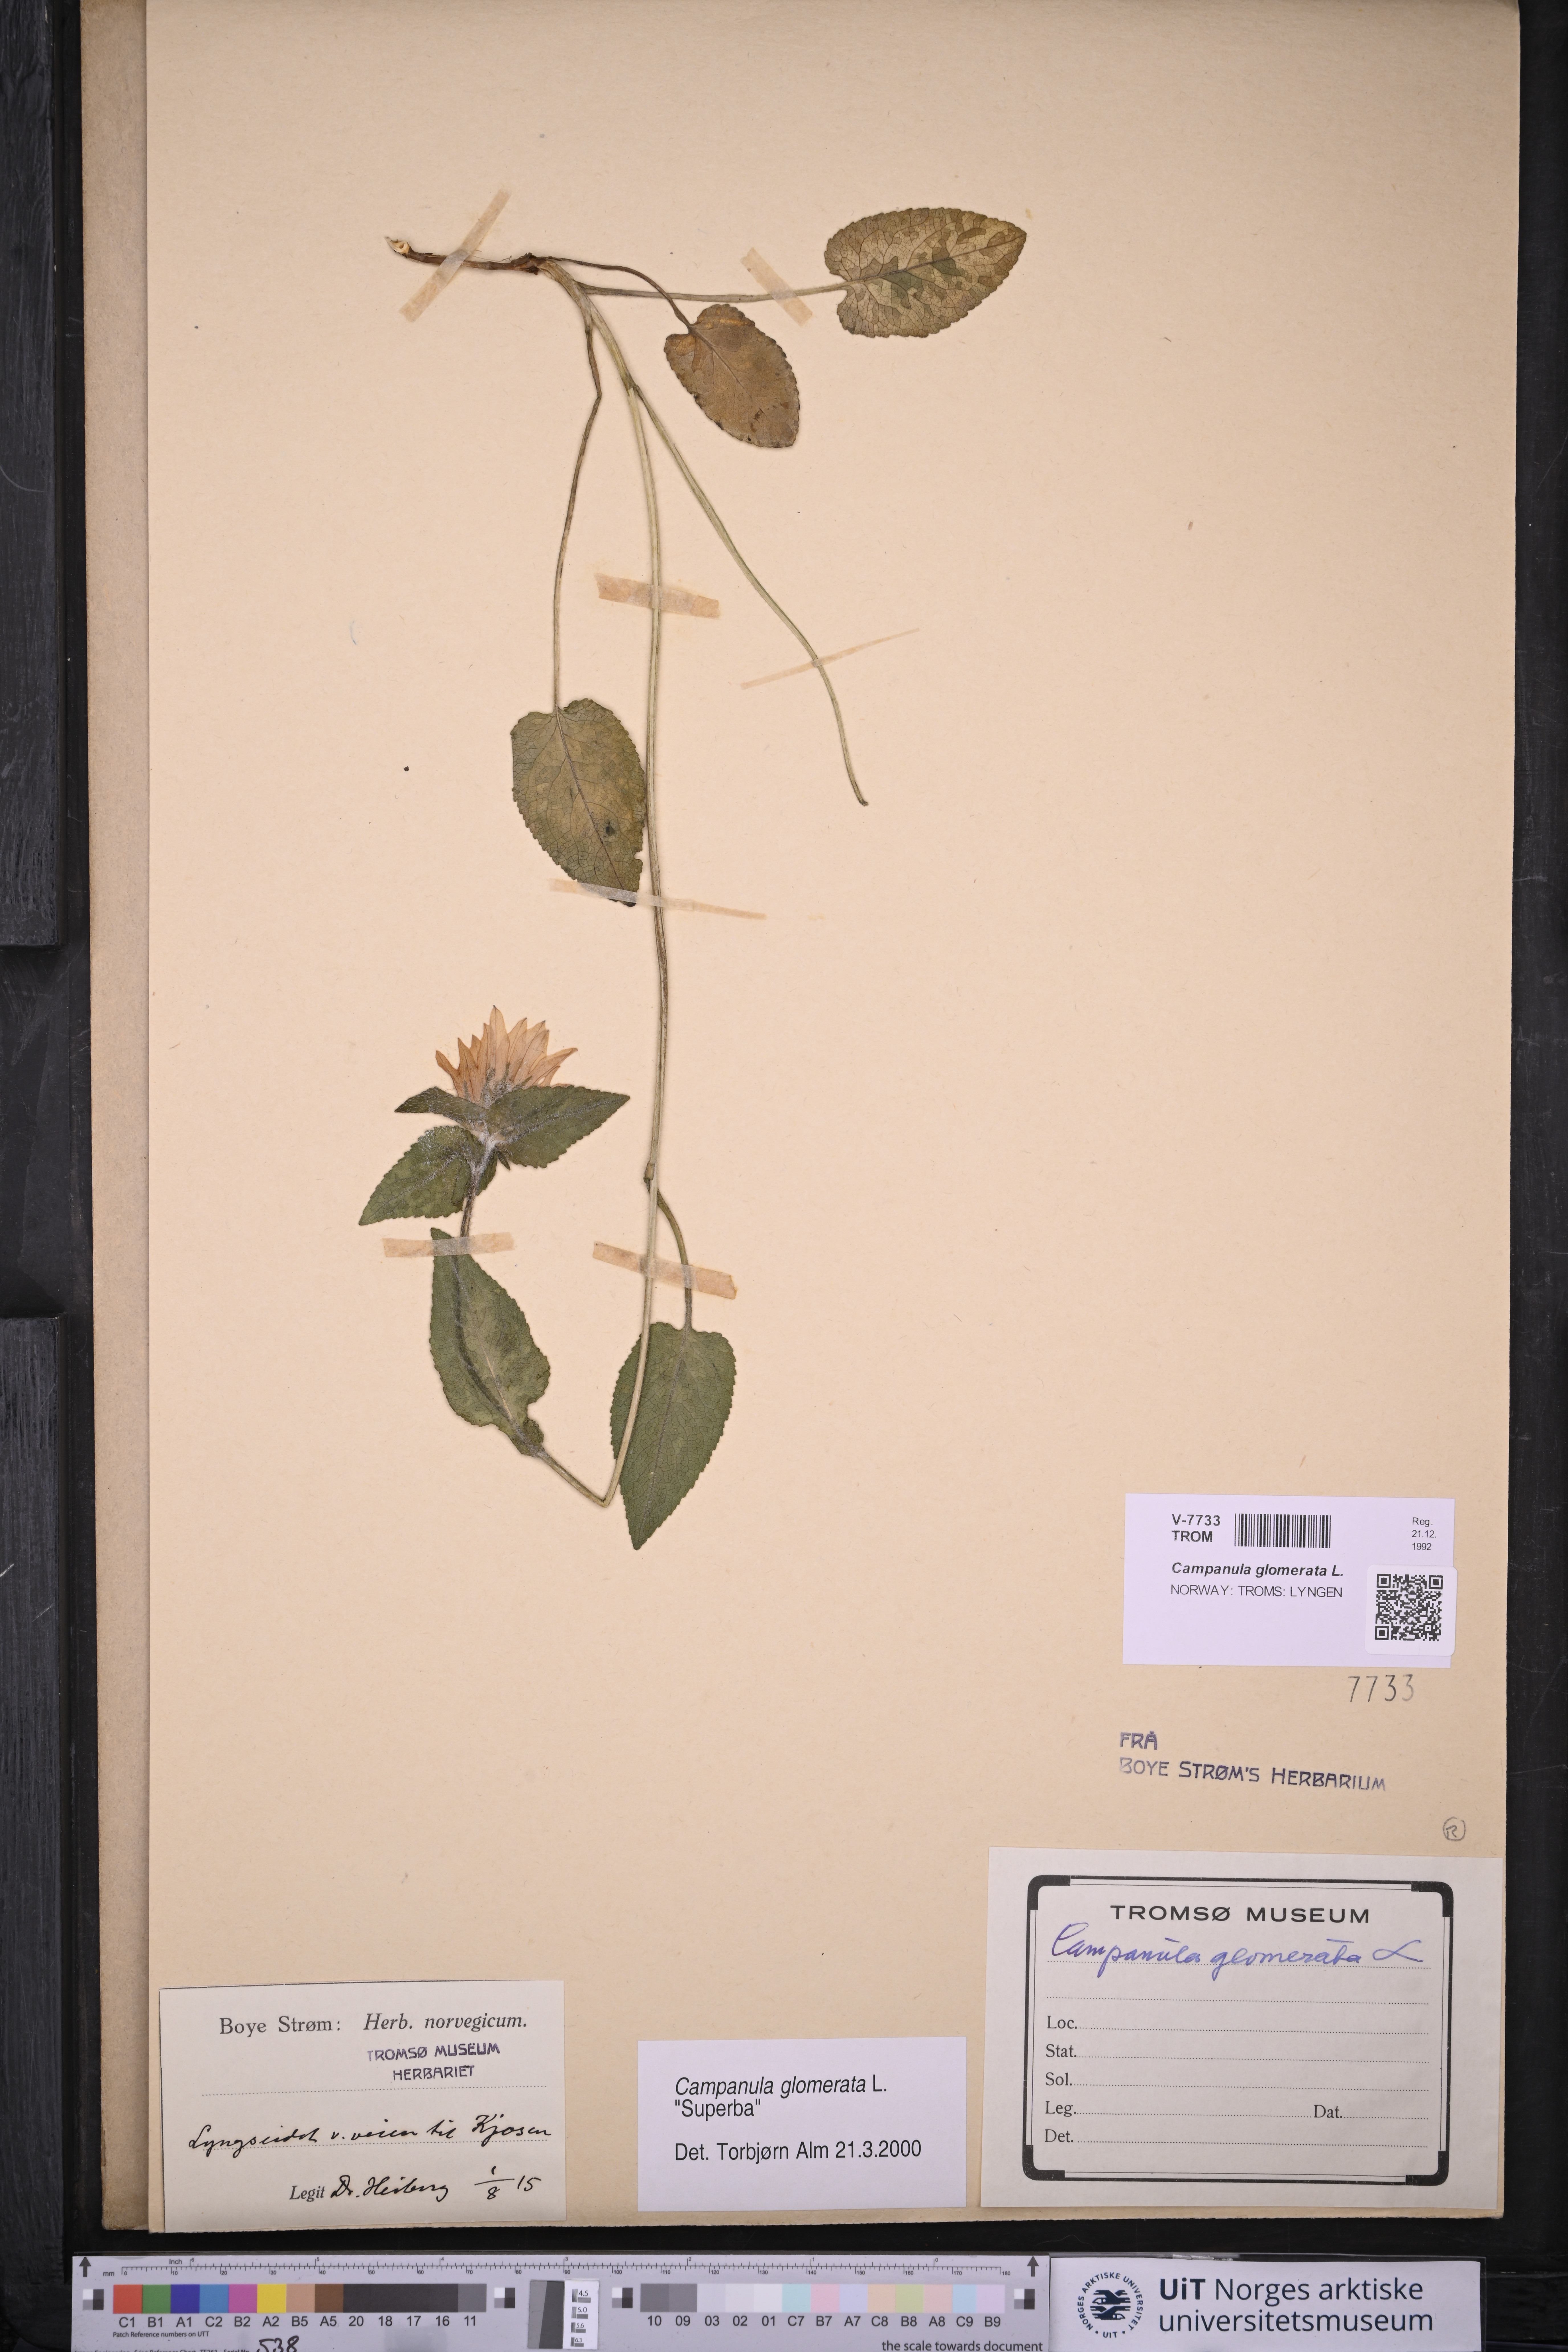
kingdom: Plantae
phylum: Tracheophyta
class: Magnoliopsida
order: Asterales
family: Campanulaceae
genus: Campanula
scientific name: Campanula glomerata
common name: Clustered bellflower
